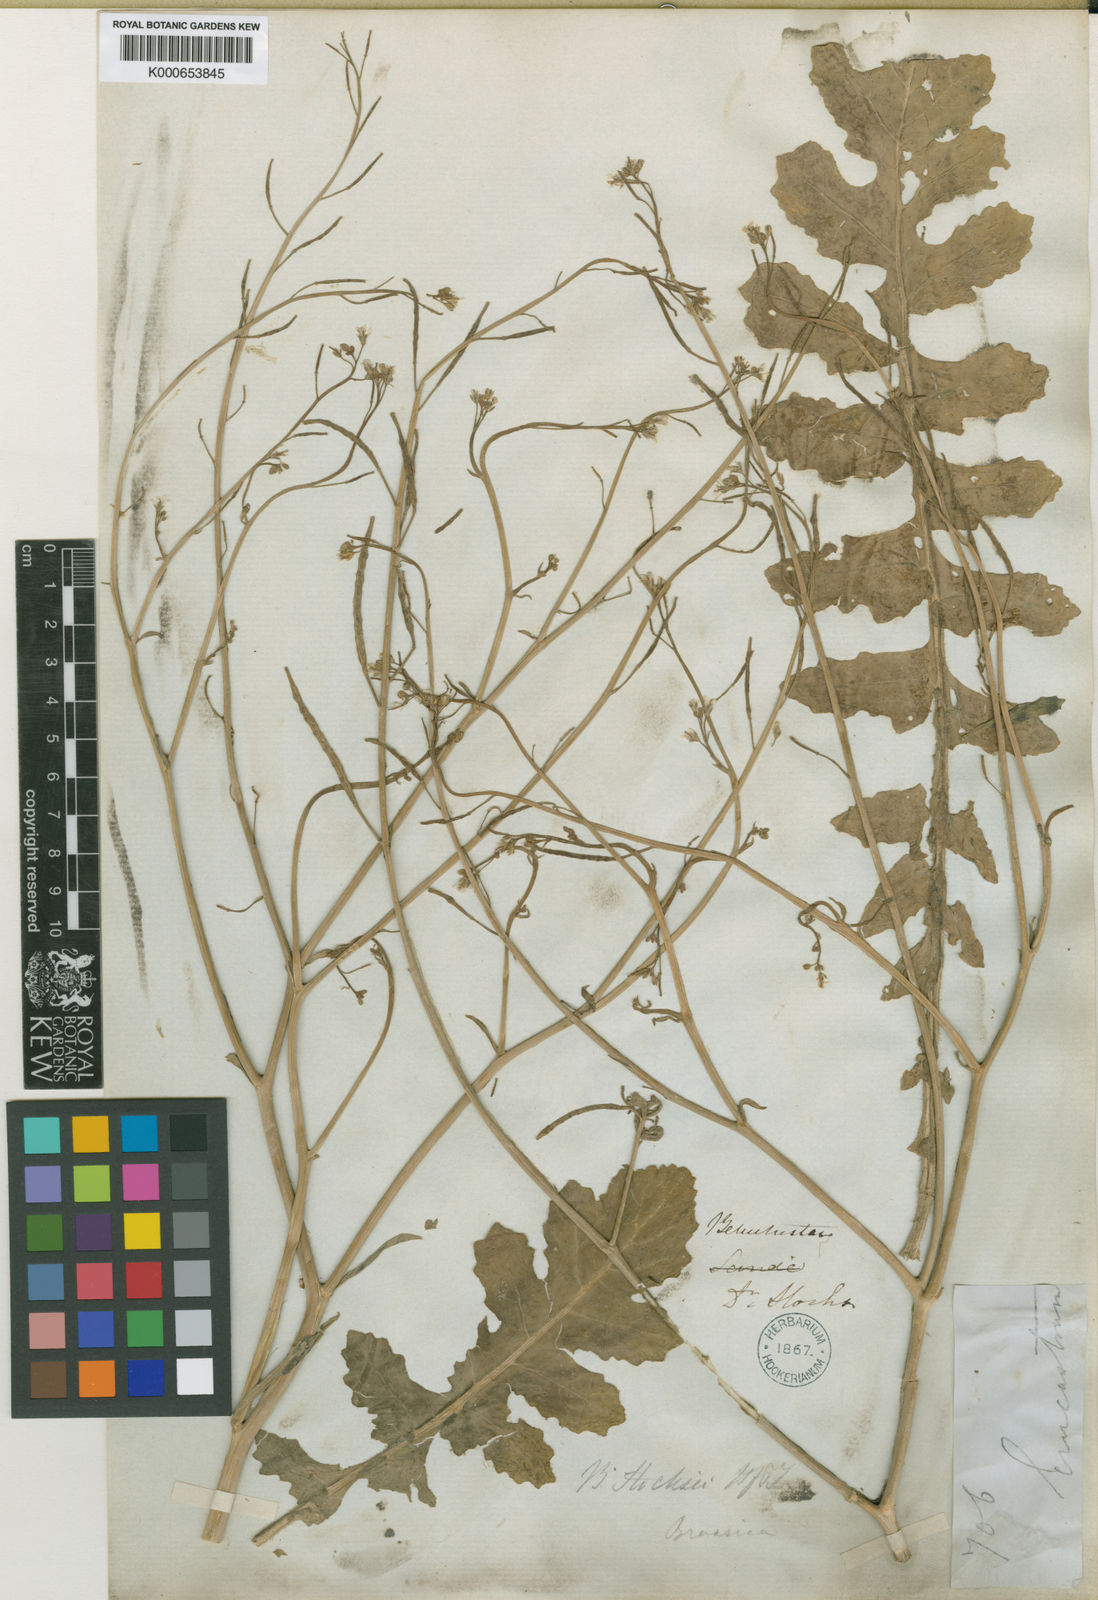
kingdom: Plantae
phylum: Tracheophyta
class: Magnoliopsida
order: Brassicales
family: Brassicaceae
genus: Brassica
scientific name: Brassica tournefortii
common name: Pale cabbage
